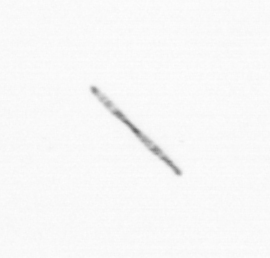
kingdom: Chromista
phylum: Ochrophyta
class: Bacillariophyceae
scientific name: Bacillariophyceae
